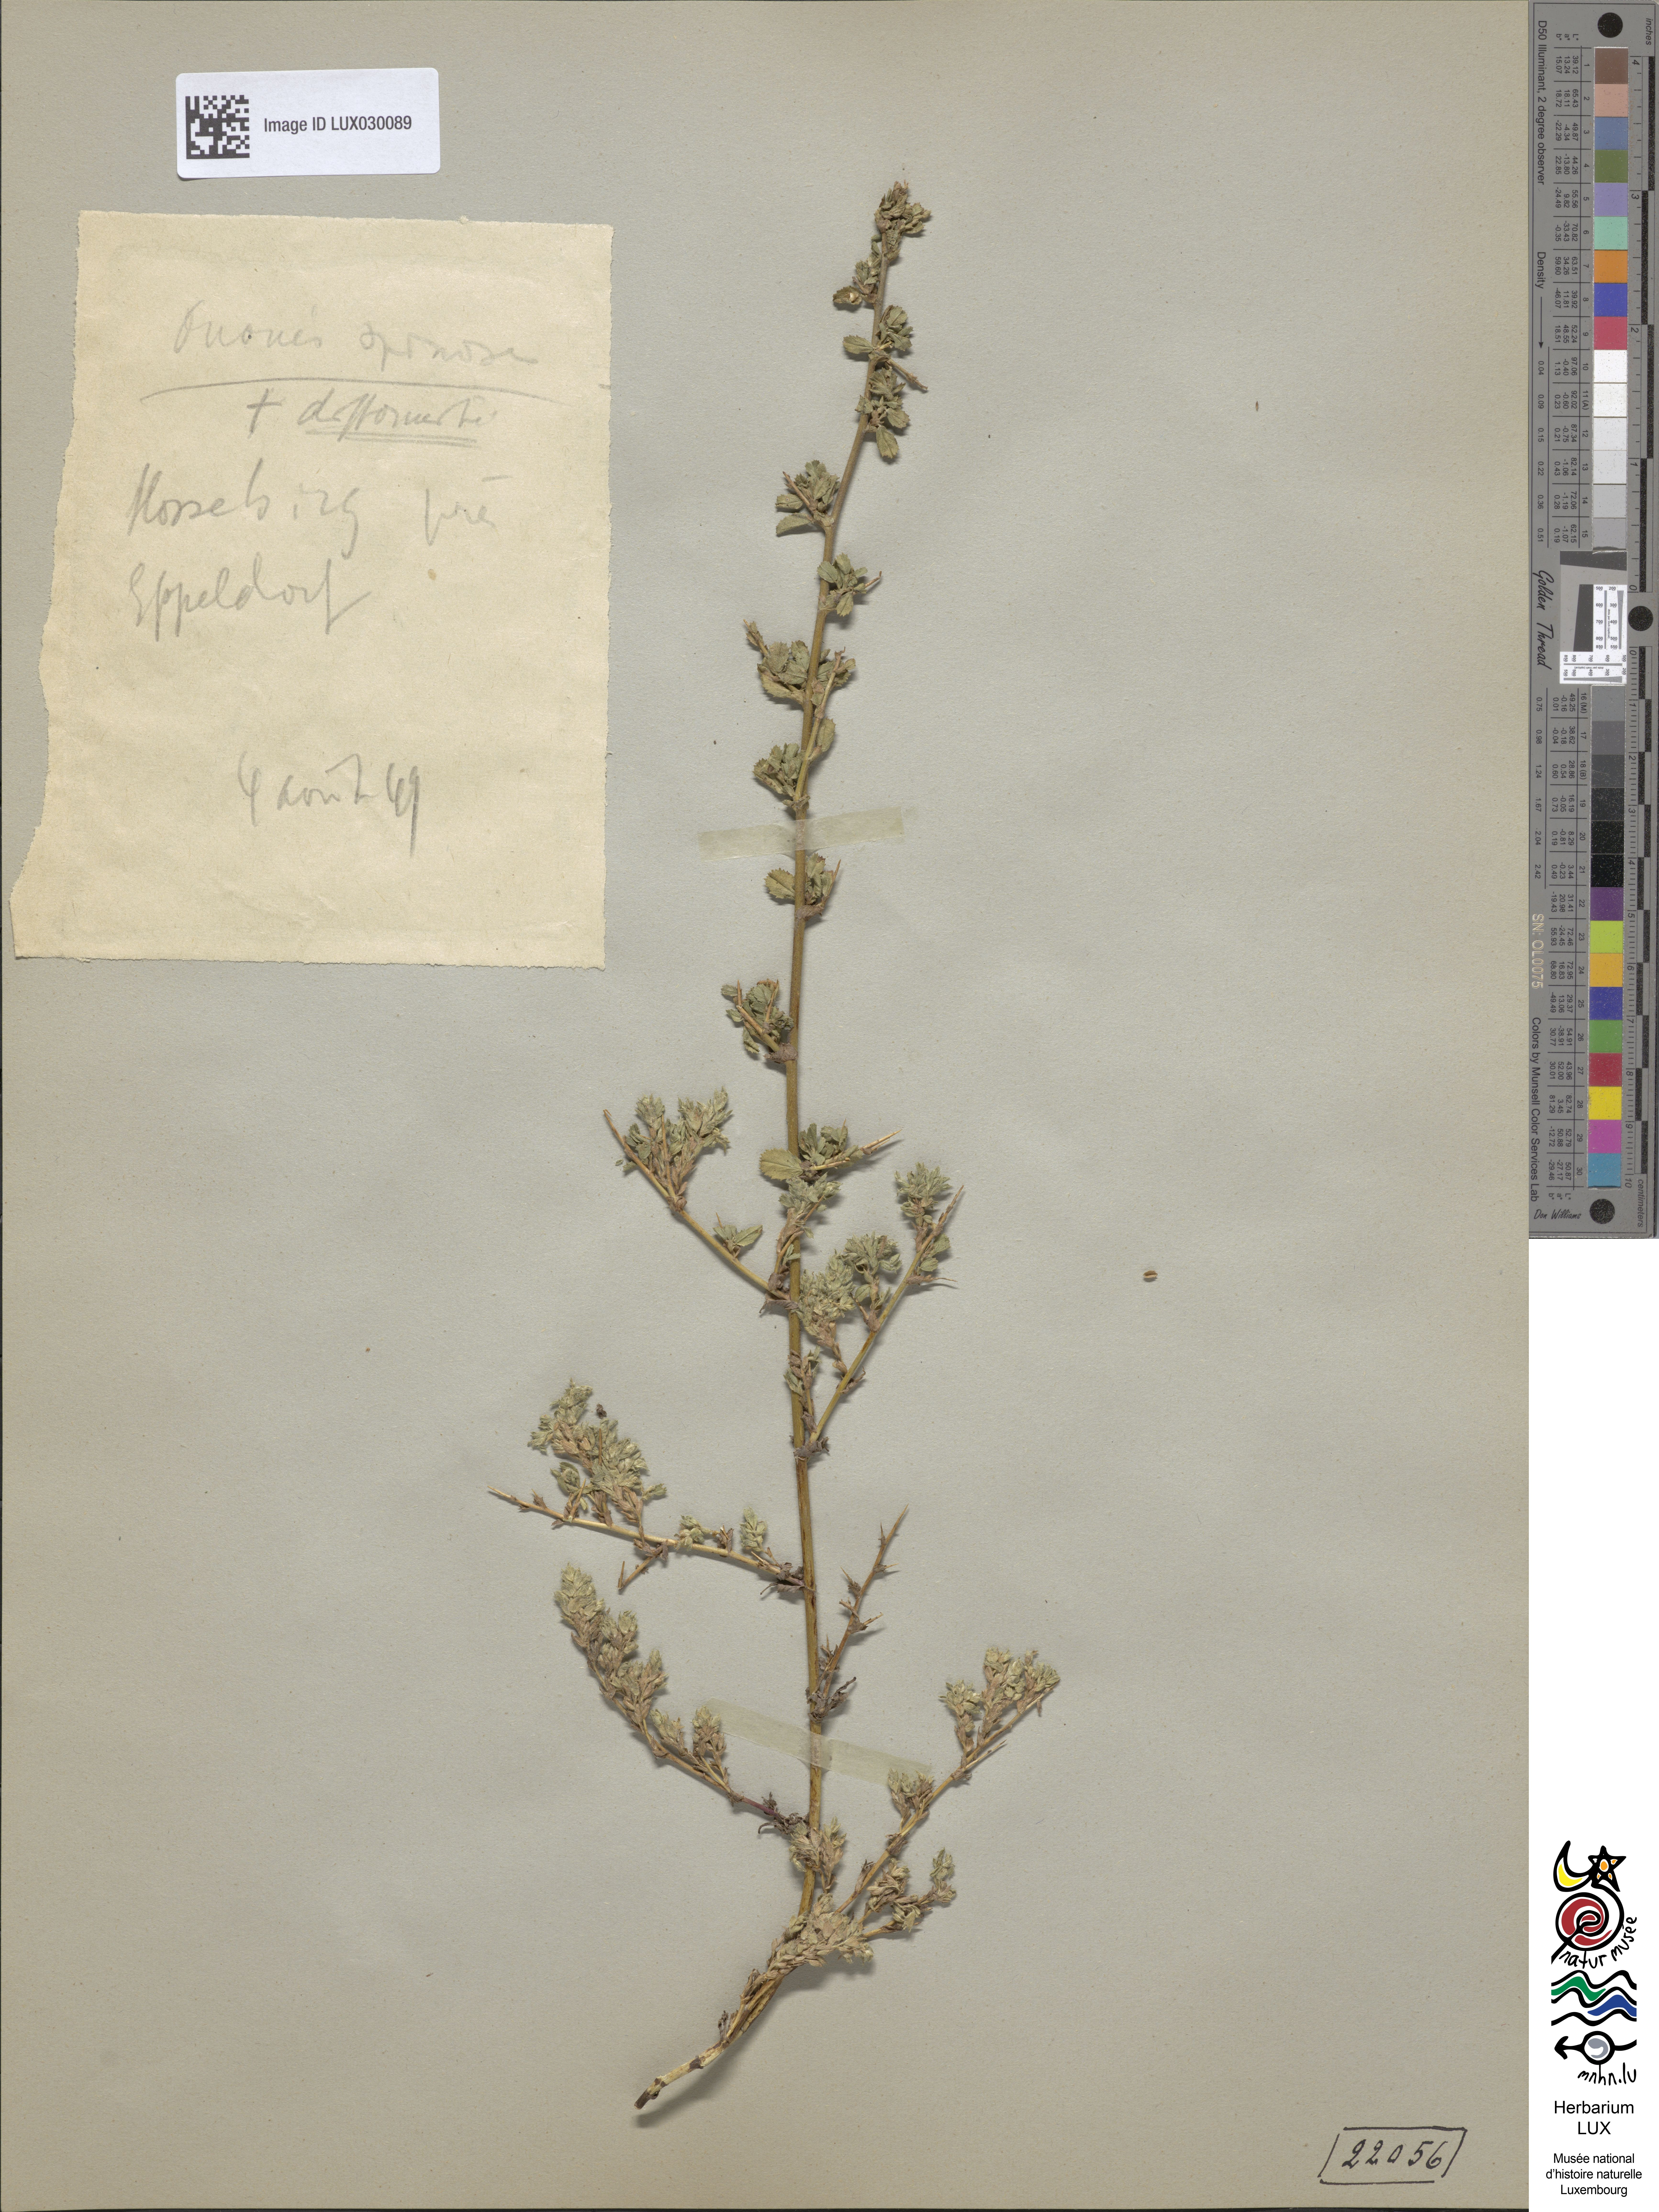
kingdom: Plantae
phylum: Tracheophyta
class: Magnoliopsida
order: Fabales
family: Fabaceae
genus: Ononis
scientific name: Ononis spinosa
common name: Spiny restharrow
